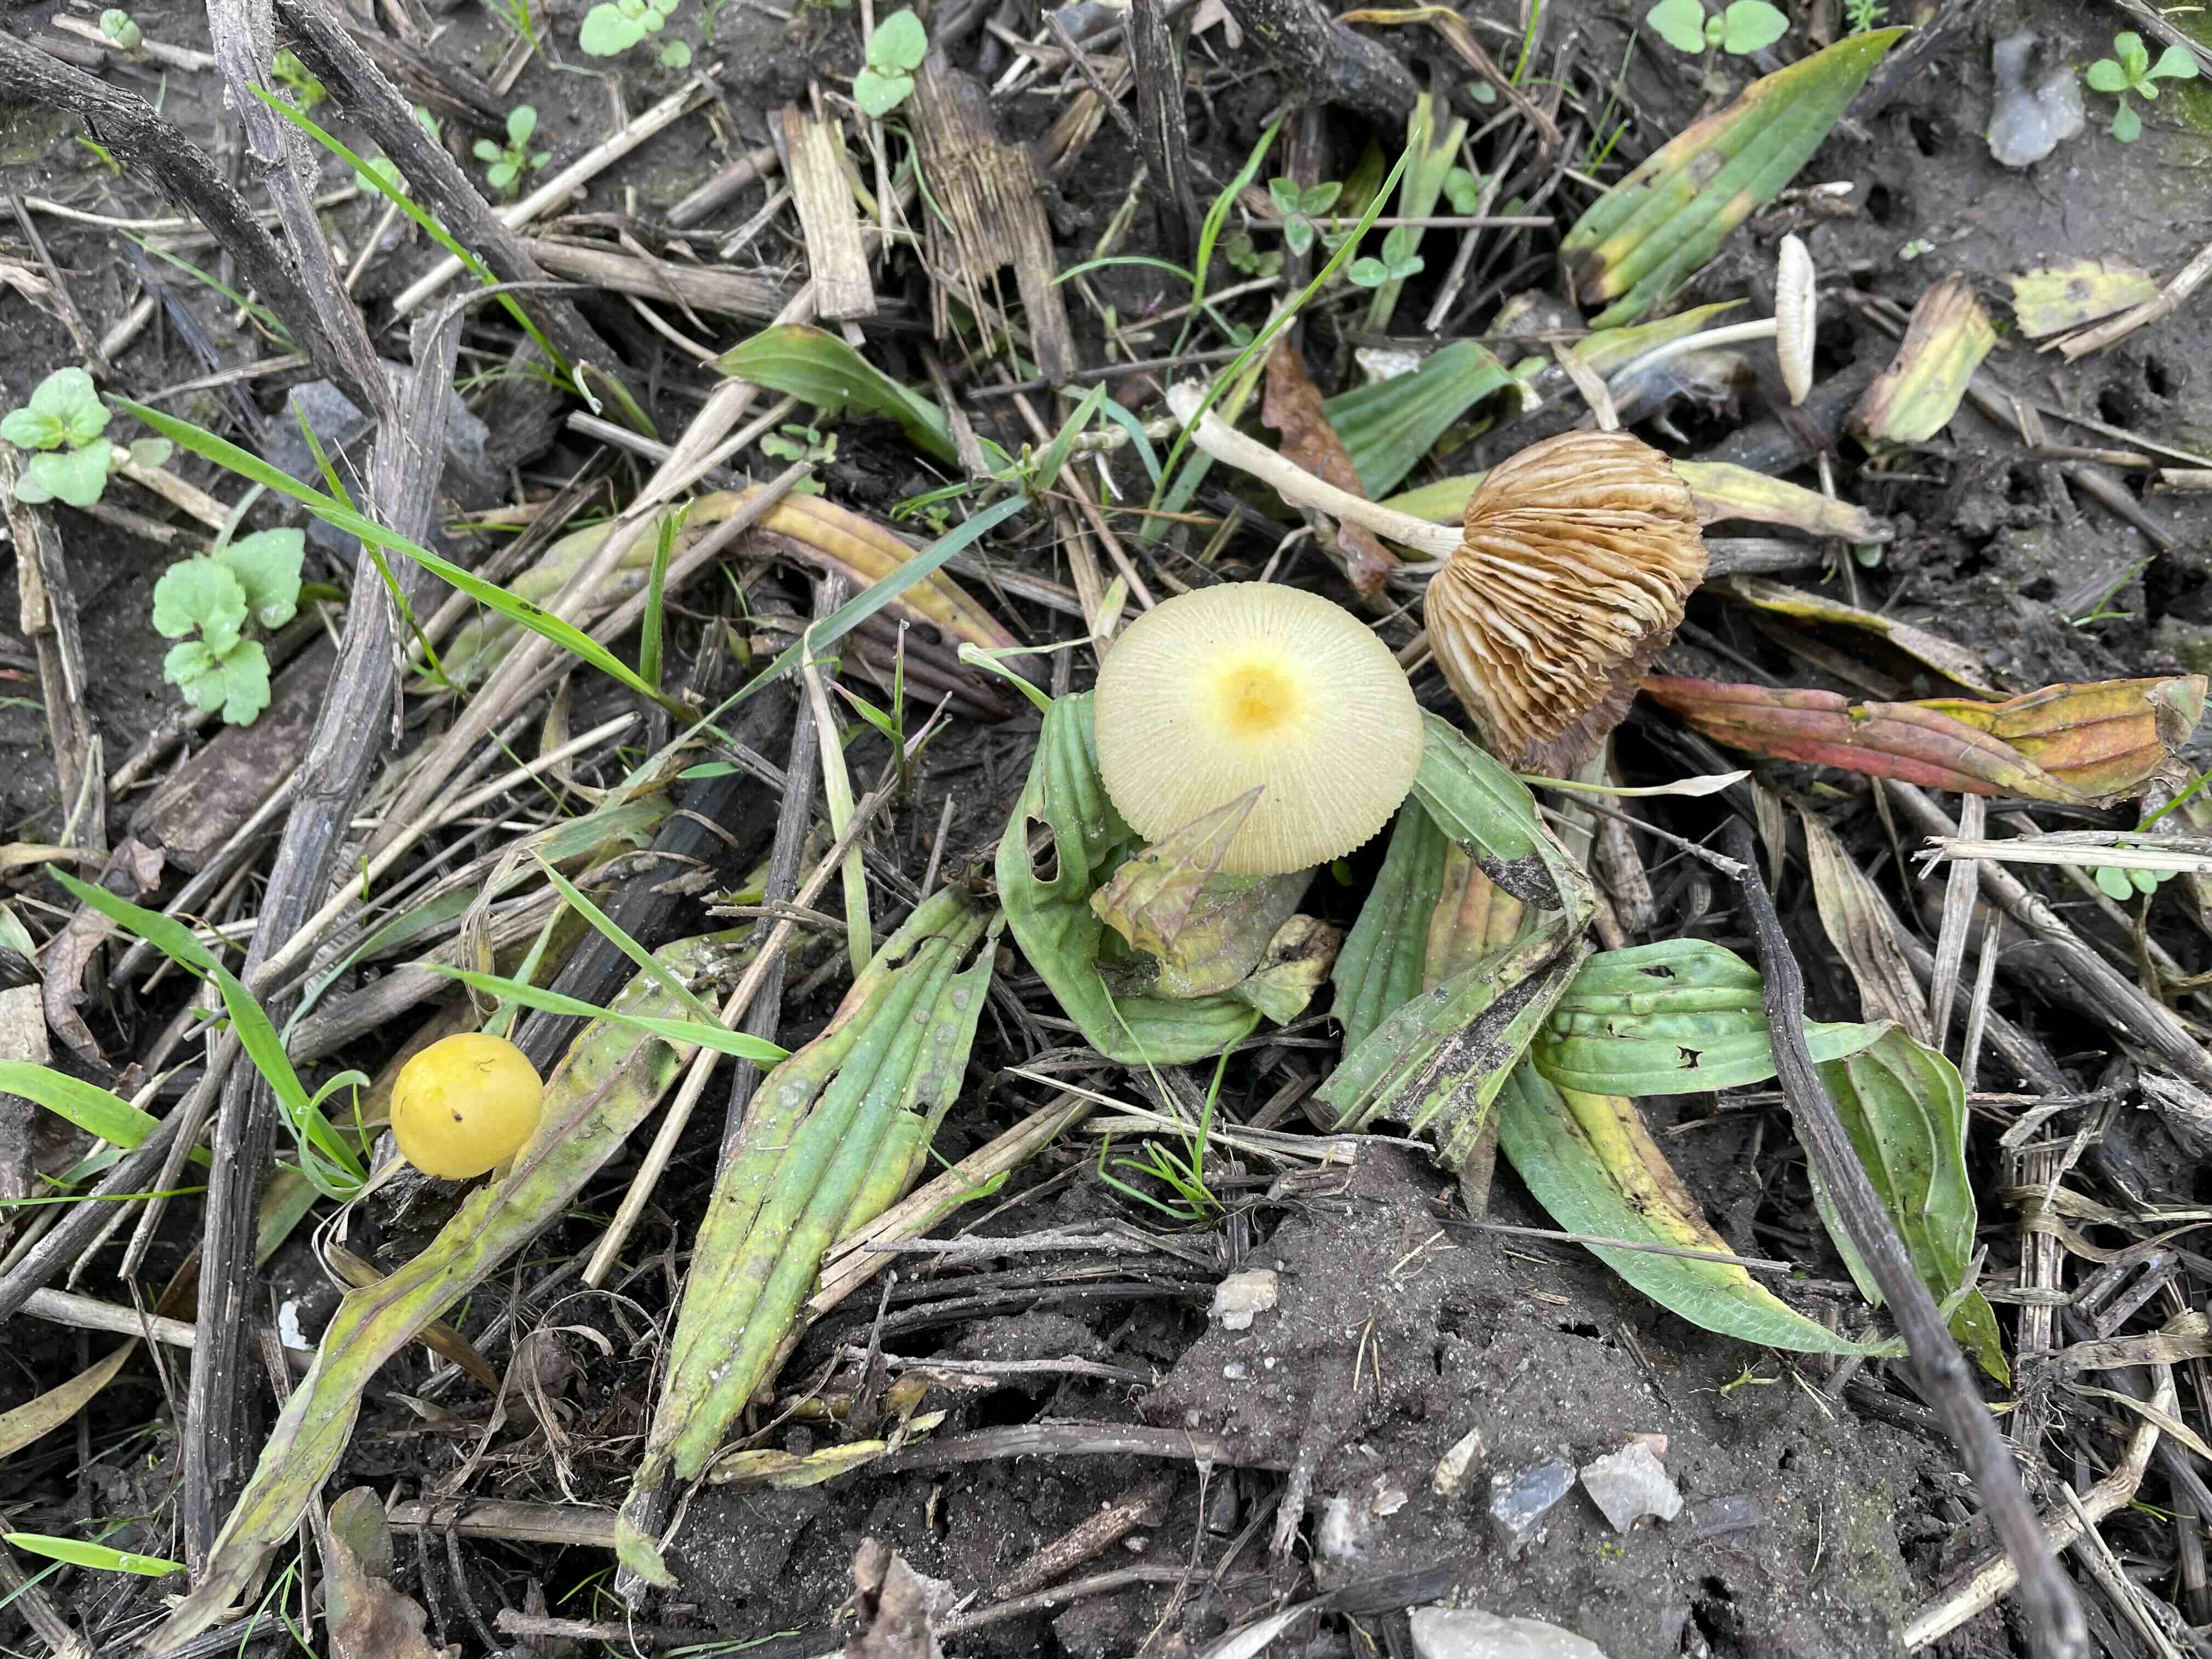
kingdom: Fungi
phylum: Basidiomycota
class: Agaricomycetes
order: Agaricales
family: Bolbitiaceae
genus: Bolbitius
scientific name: Bolbitius titubans
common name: almindelig gulhat
